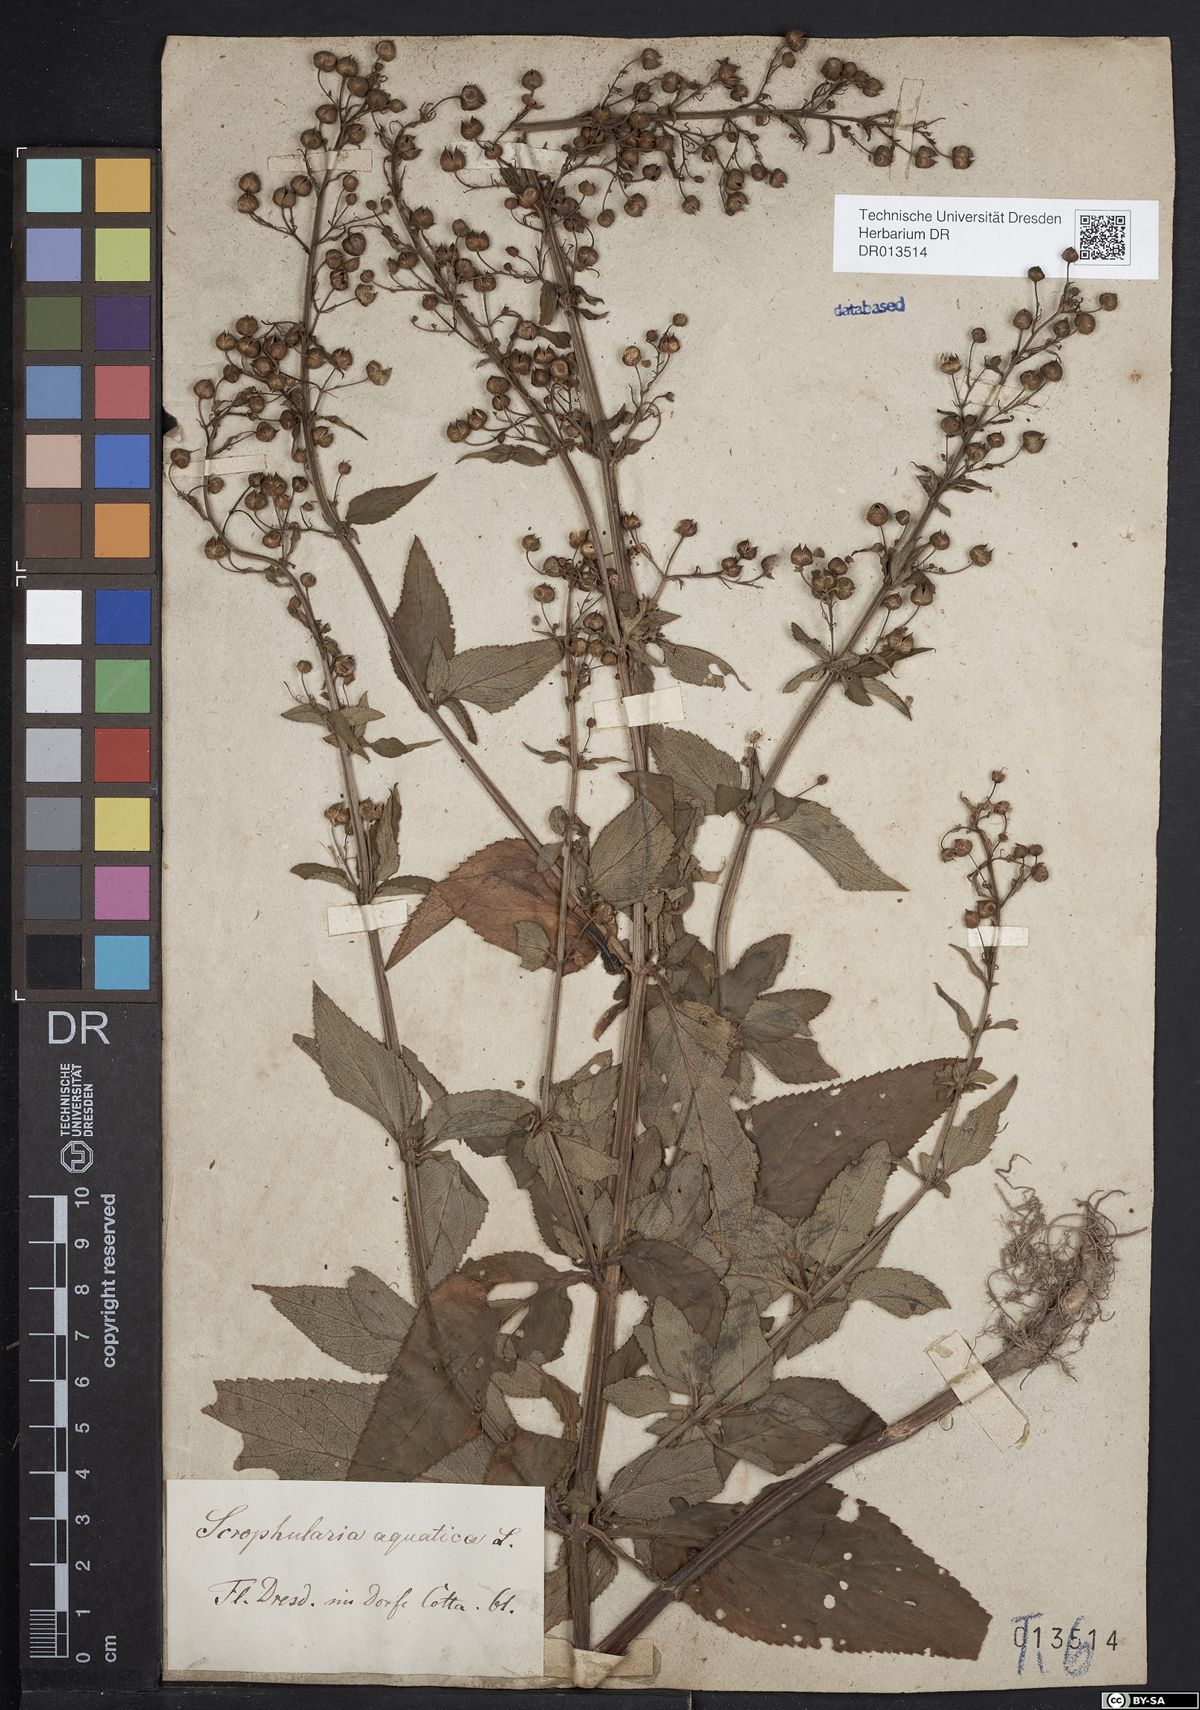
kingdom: Plantae
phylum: Tracheophyta
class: Magnoliopsida
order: Lamiales
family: Scrophulariaceae
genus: Scrophularia
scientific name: Scrophularia umbrosa
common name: Green figwort
